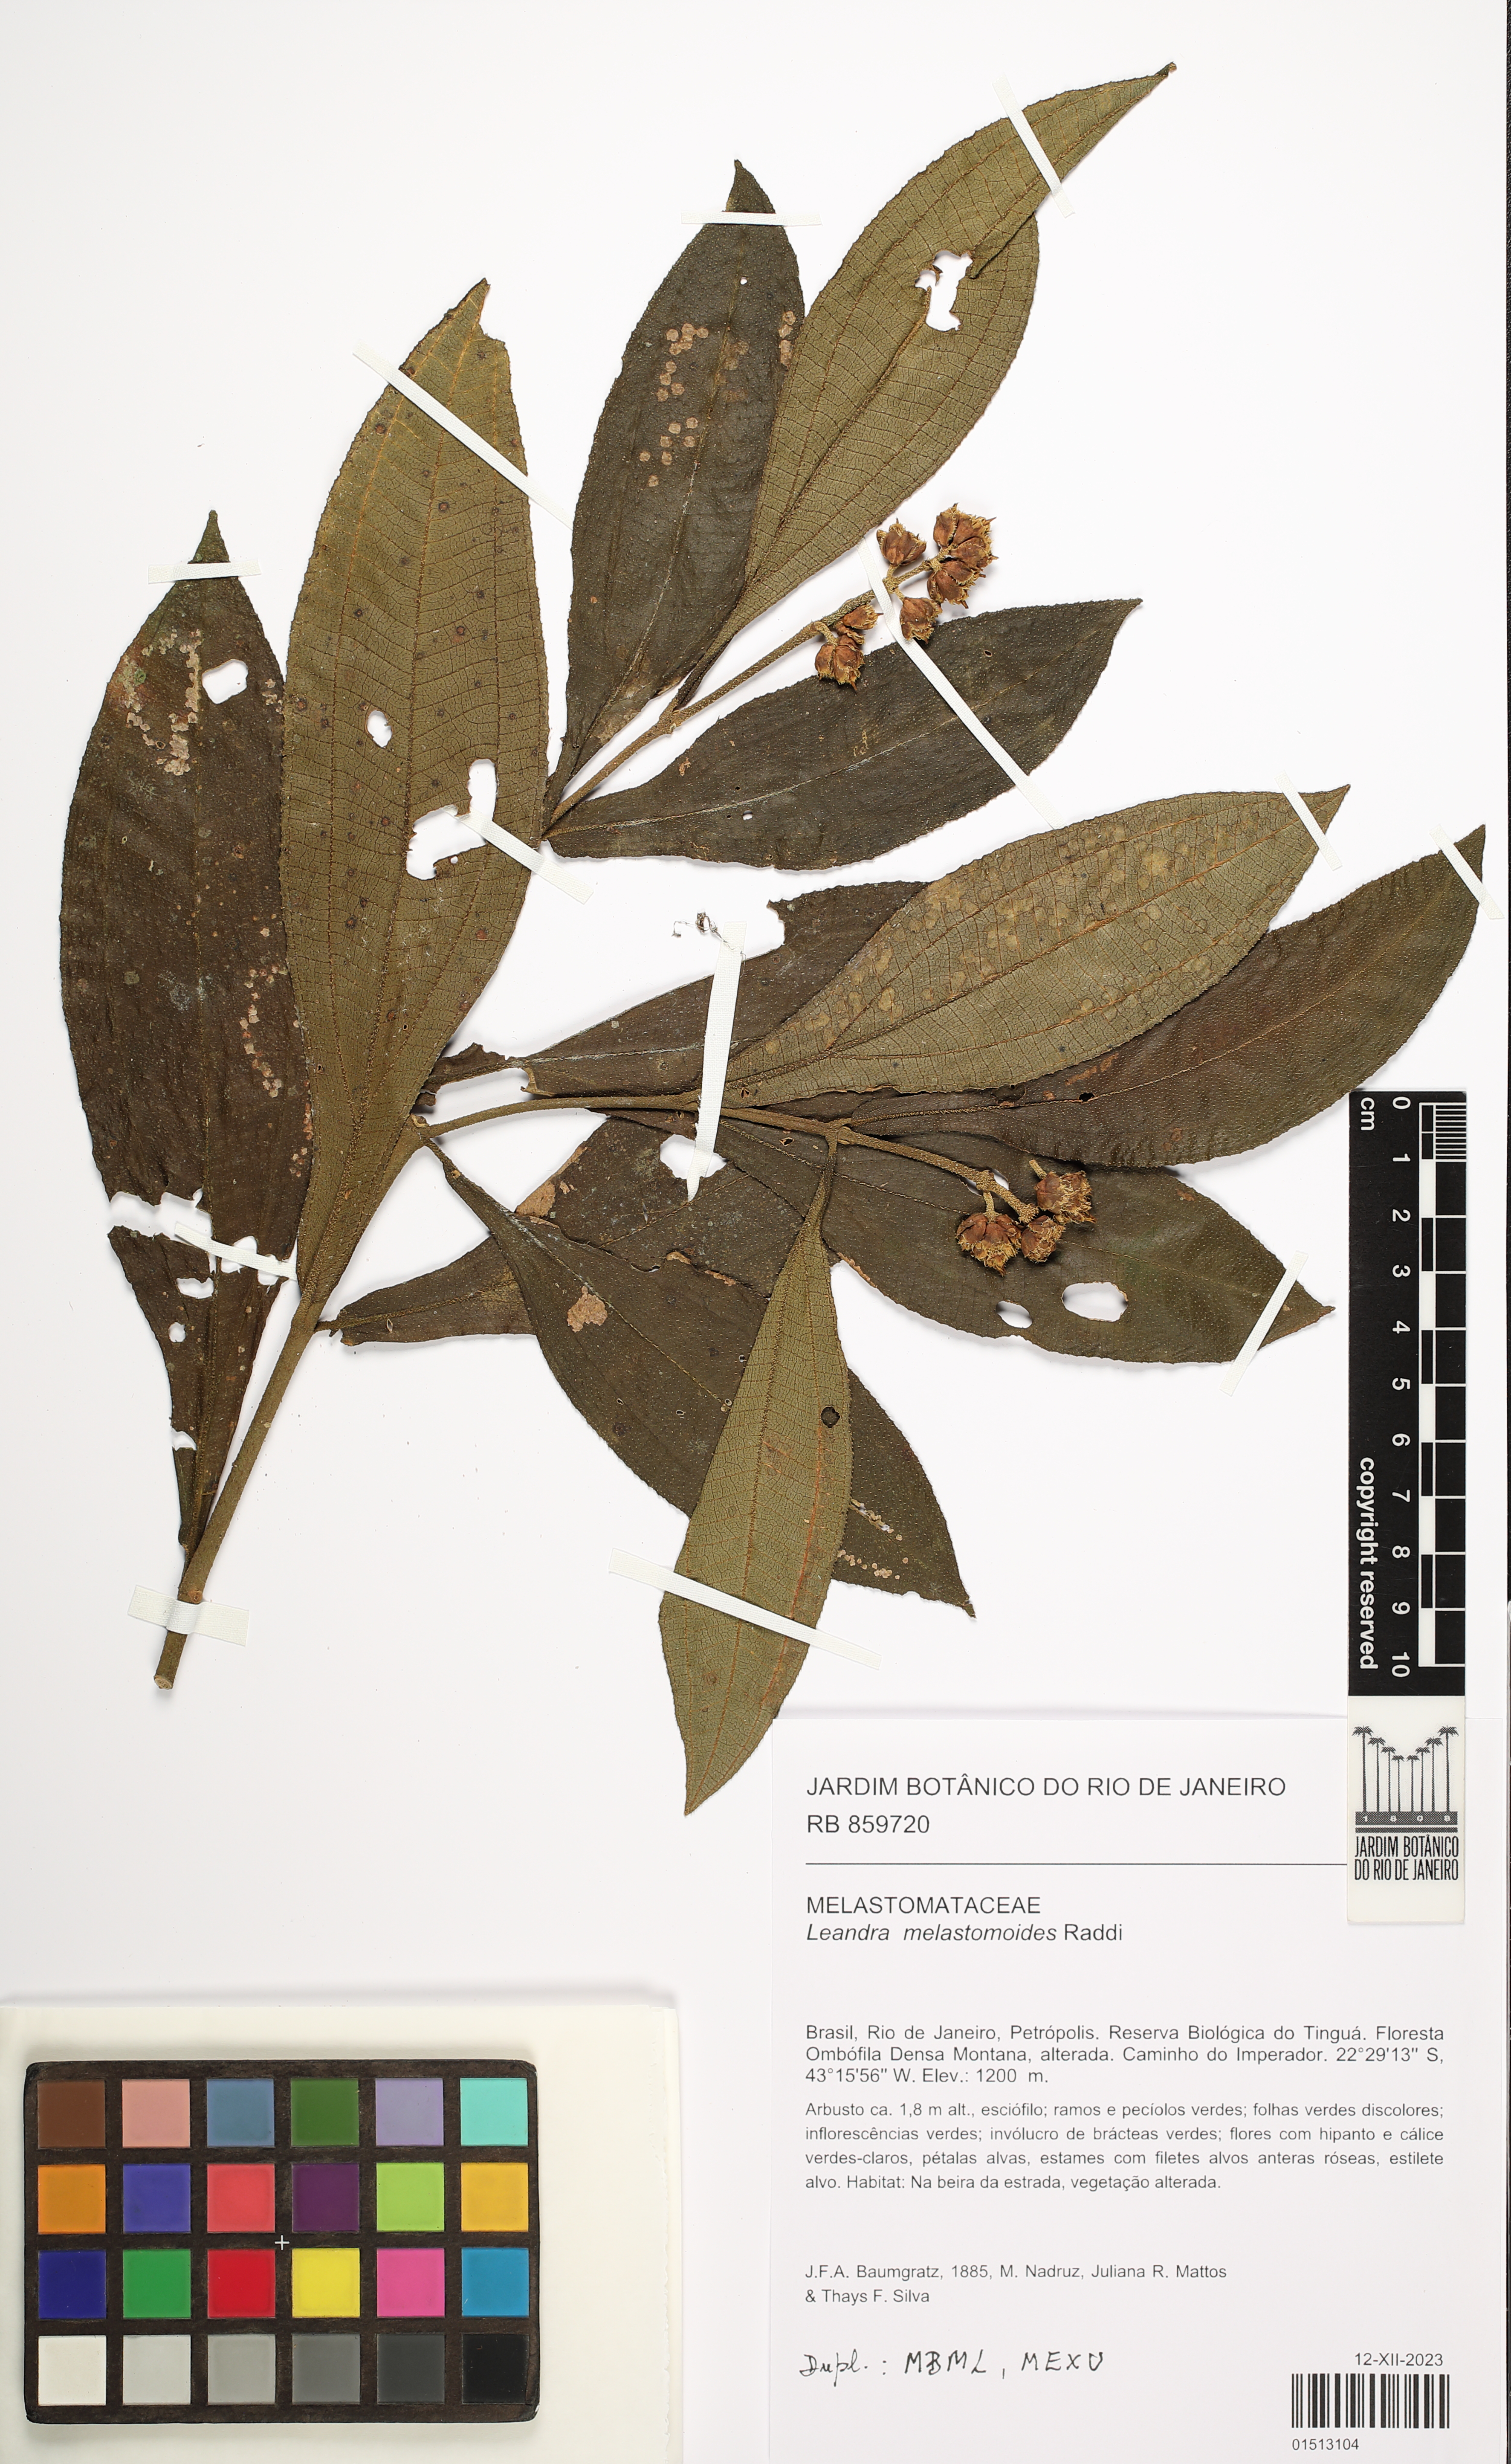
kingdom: Plantae
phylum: Tracheophyta
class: Magnoliopsida
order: Myrtales
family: Melastomataceae
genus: Miconia
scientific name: Miconia melastomoides
